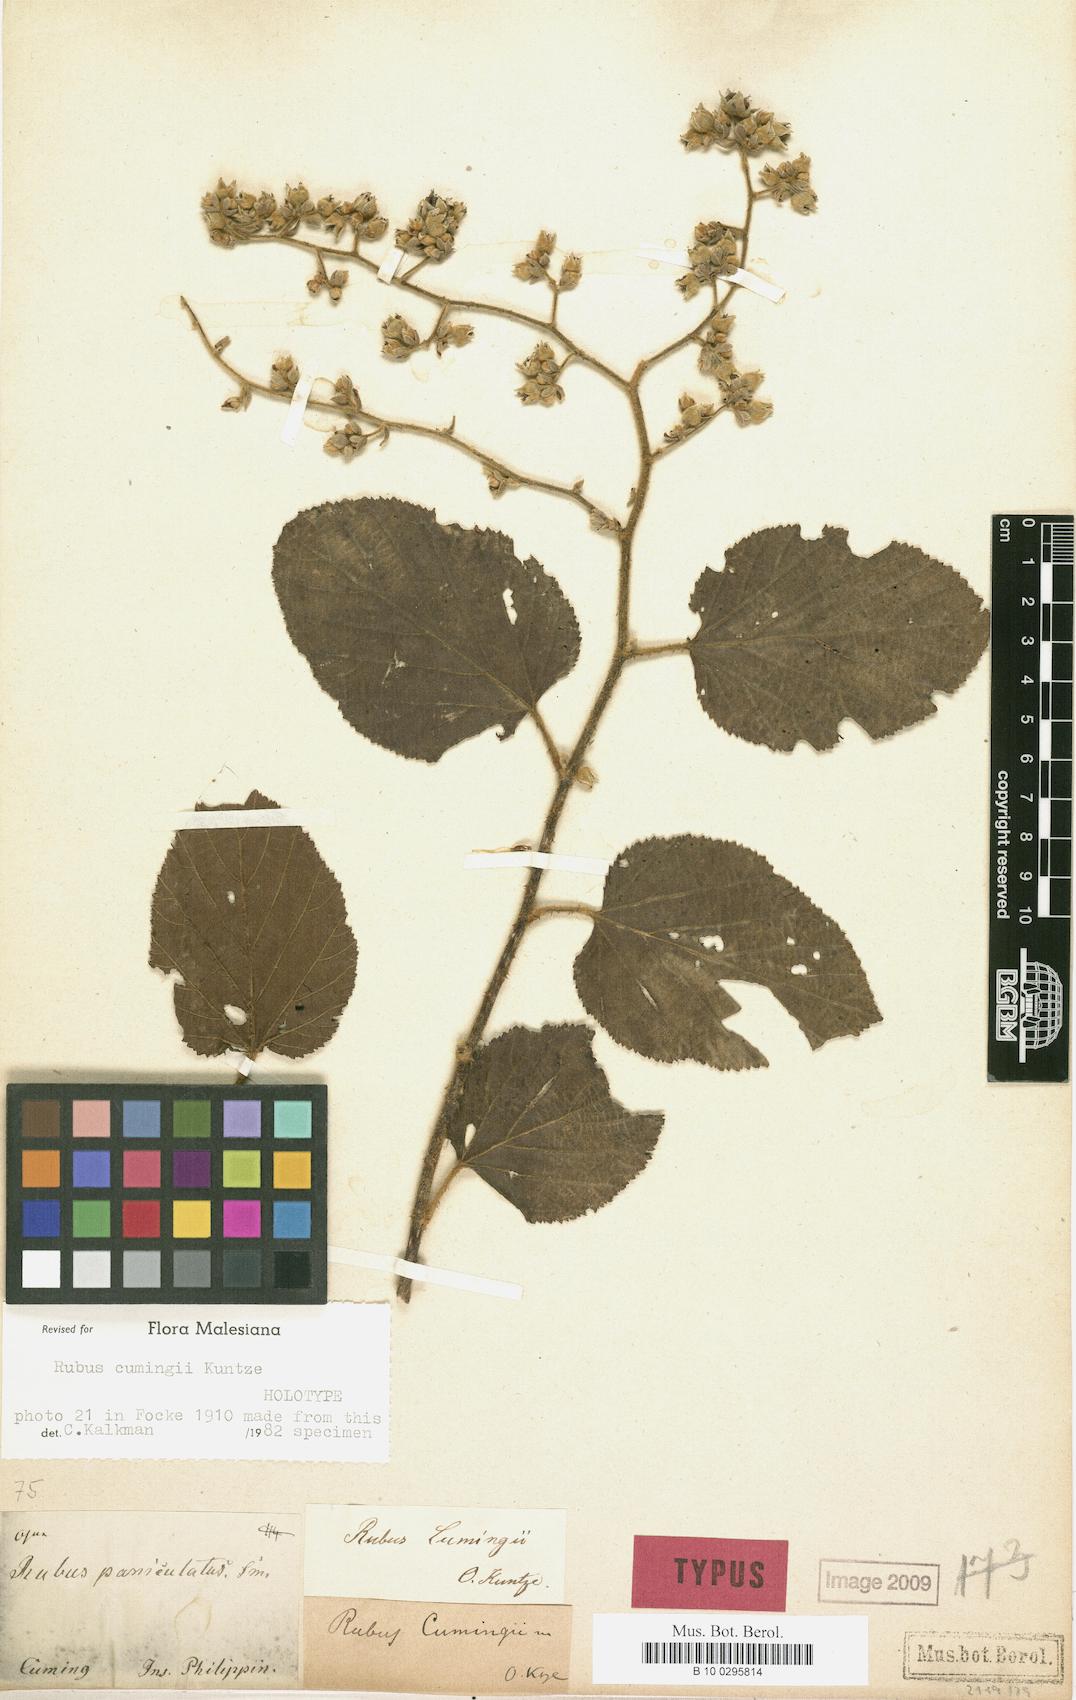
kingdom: Plantae
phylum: Tracheophyta
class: Magnoliopsida
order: Rosales
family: Rosaceae
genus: Rubus
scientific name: Rubus cumingii
